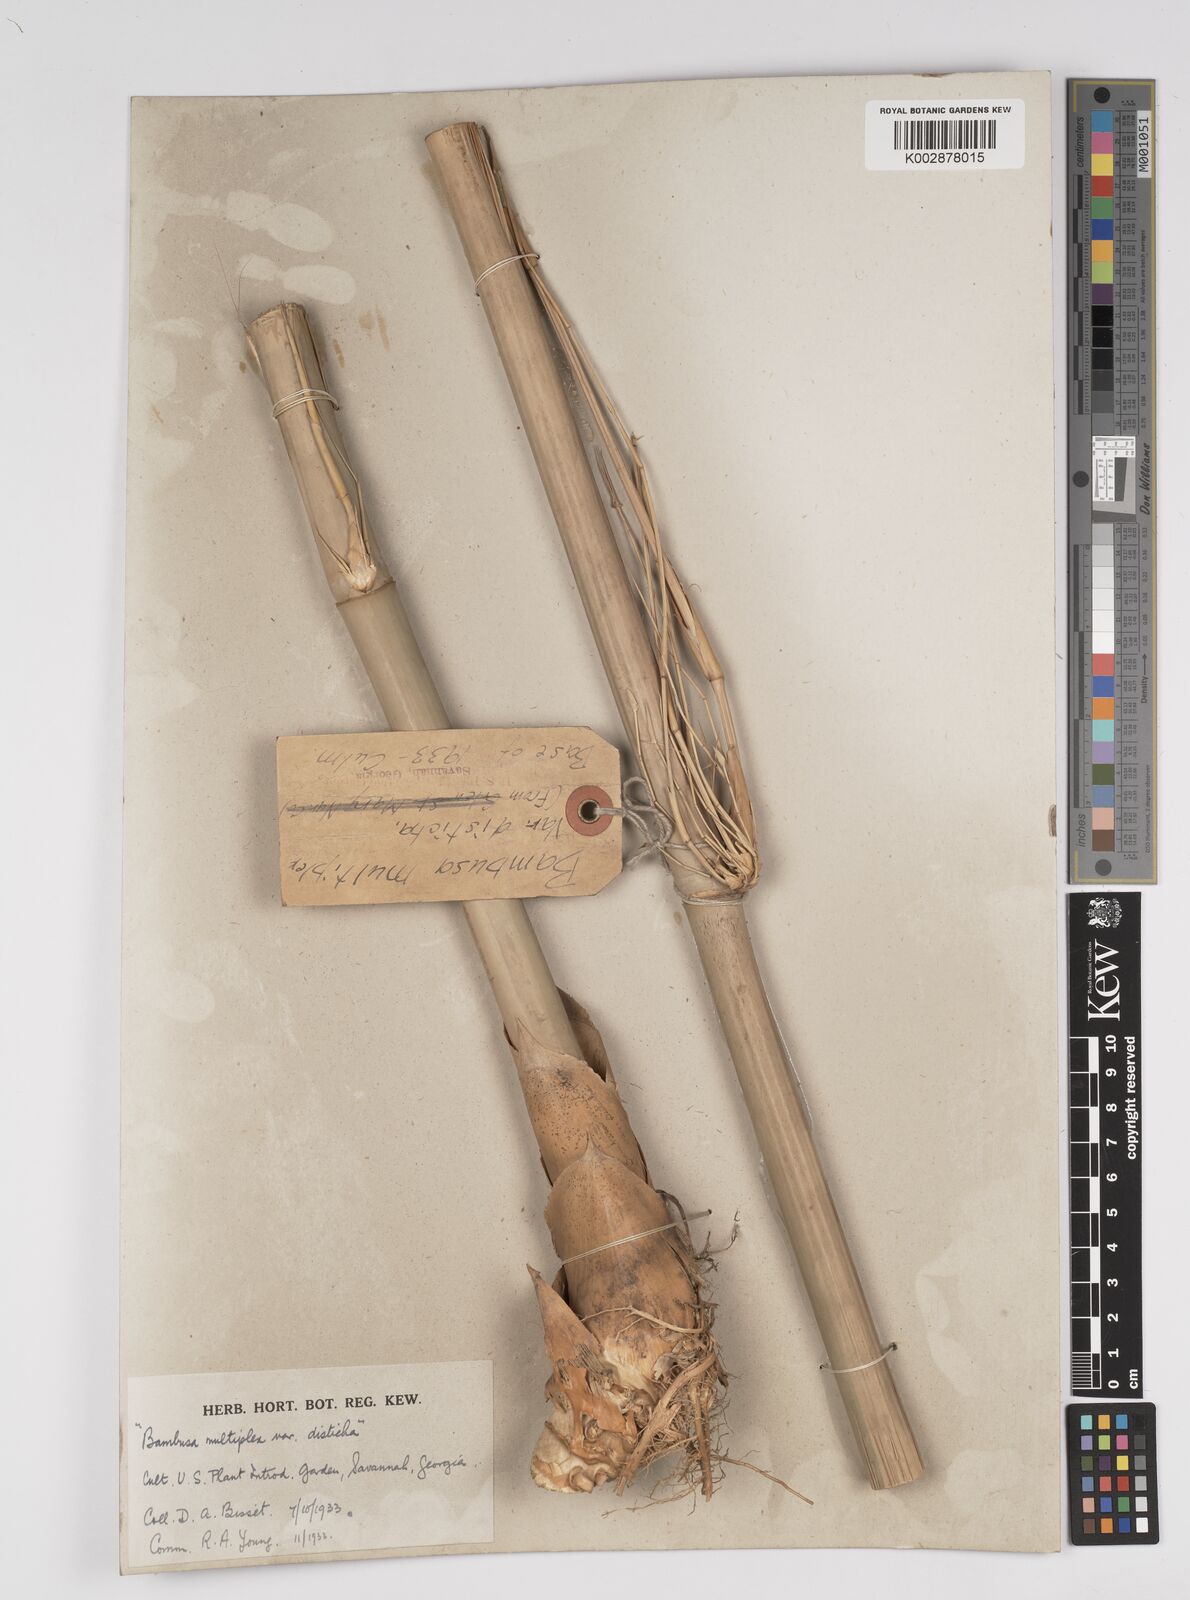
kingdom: Plantae
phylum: Tracheophyta
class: Liliopsida
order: Poales
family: Poaceae
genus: Bambusa
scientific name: Bambusa multiplex
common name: Hedge bamboo
